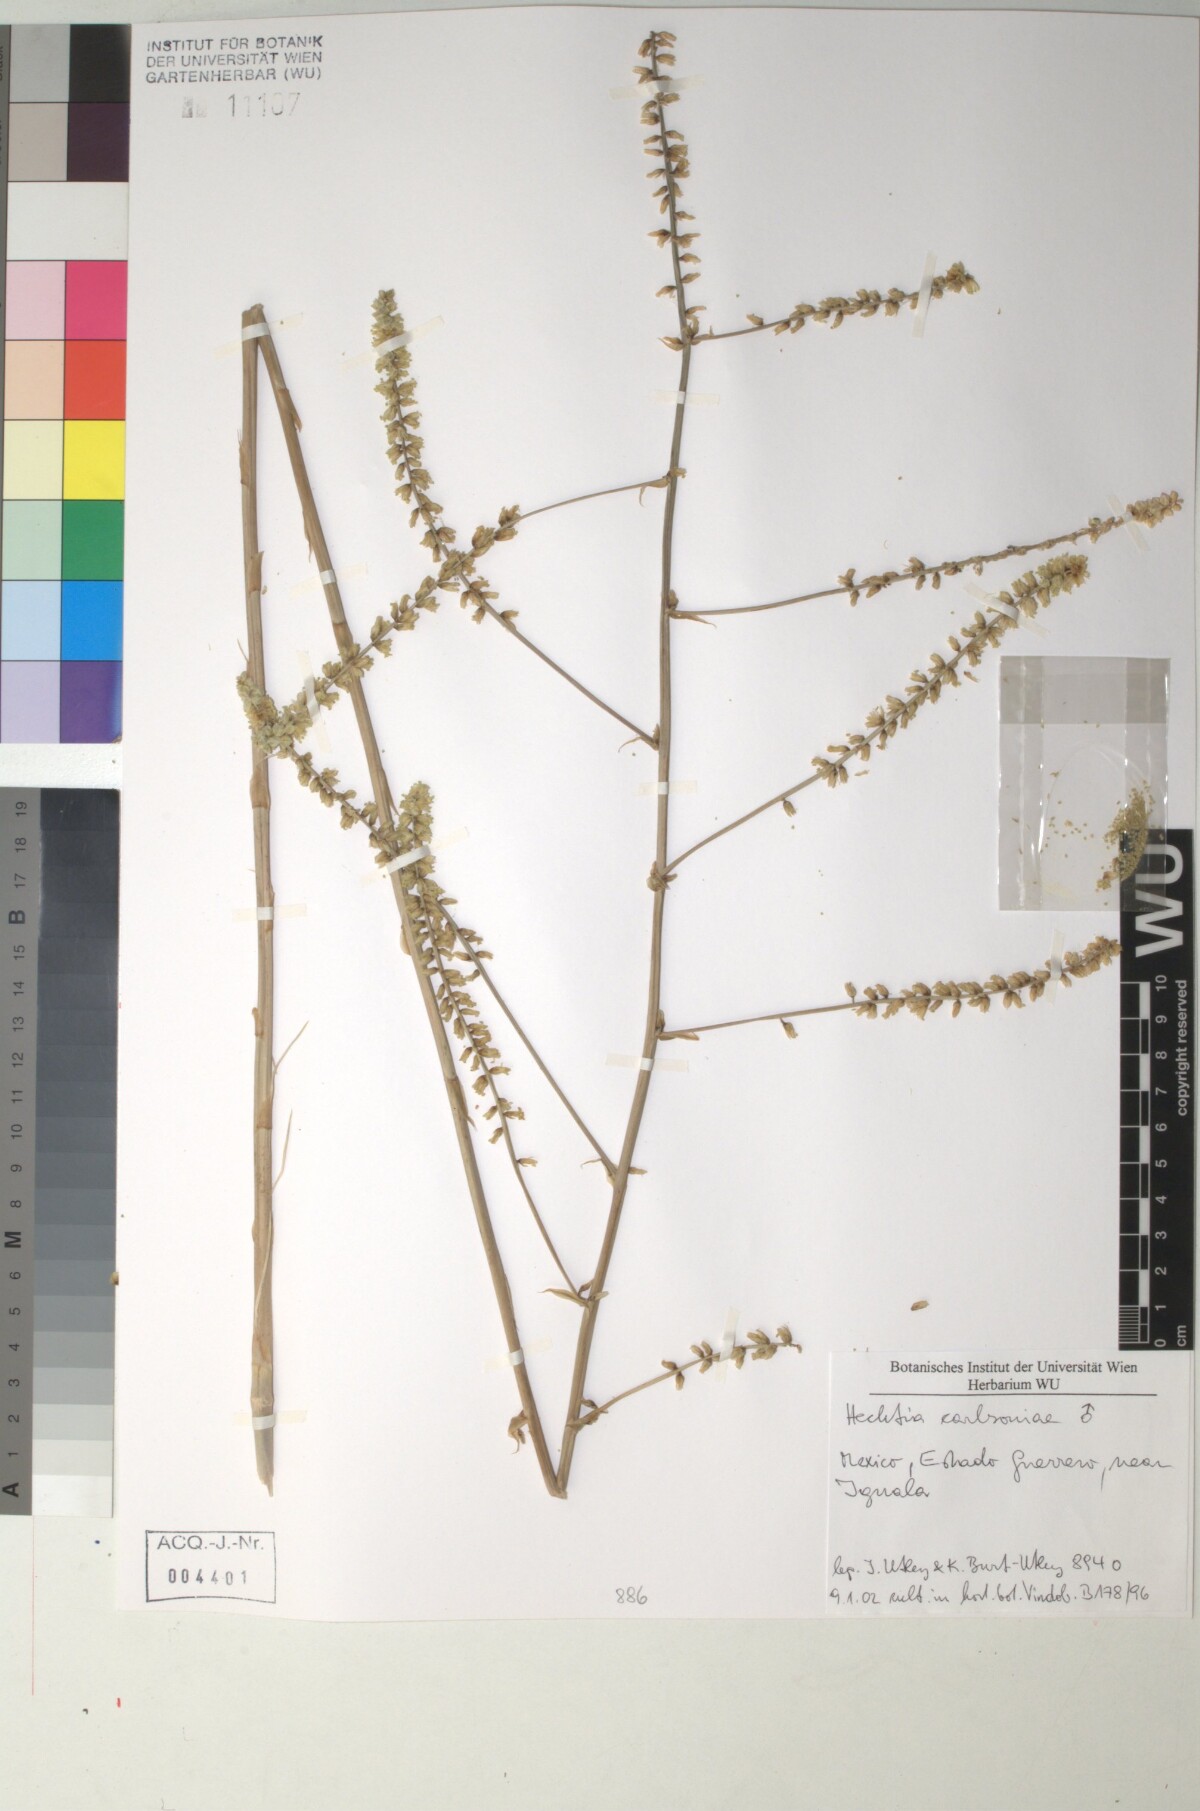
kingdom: Plantae
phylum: Tracheophyta
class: Liliopsida
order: Poales
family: Bromeliaceae
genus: Hechtia
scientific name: Hechtia carlsoniae
